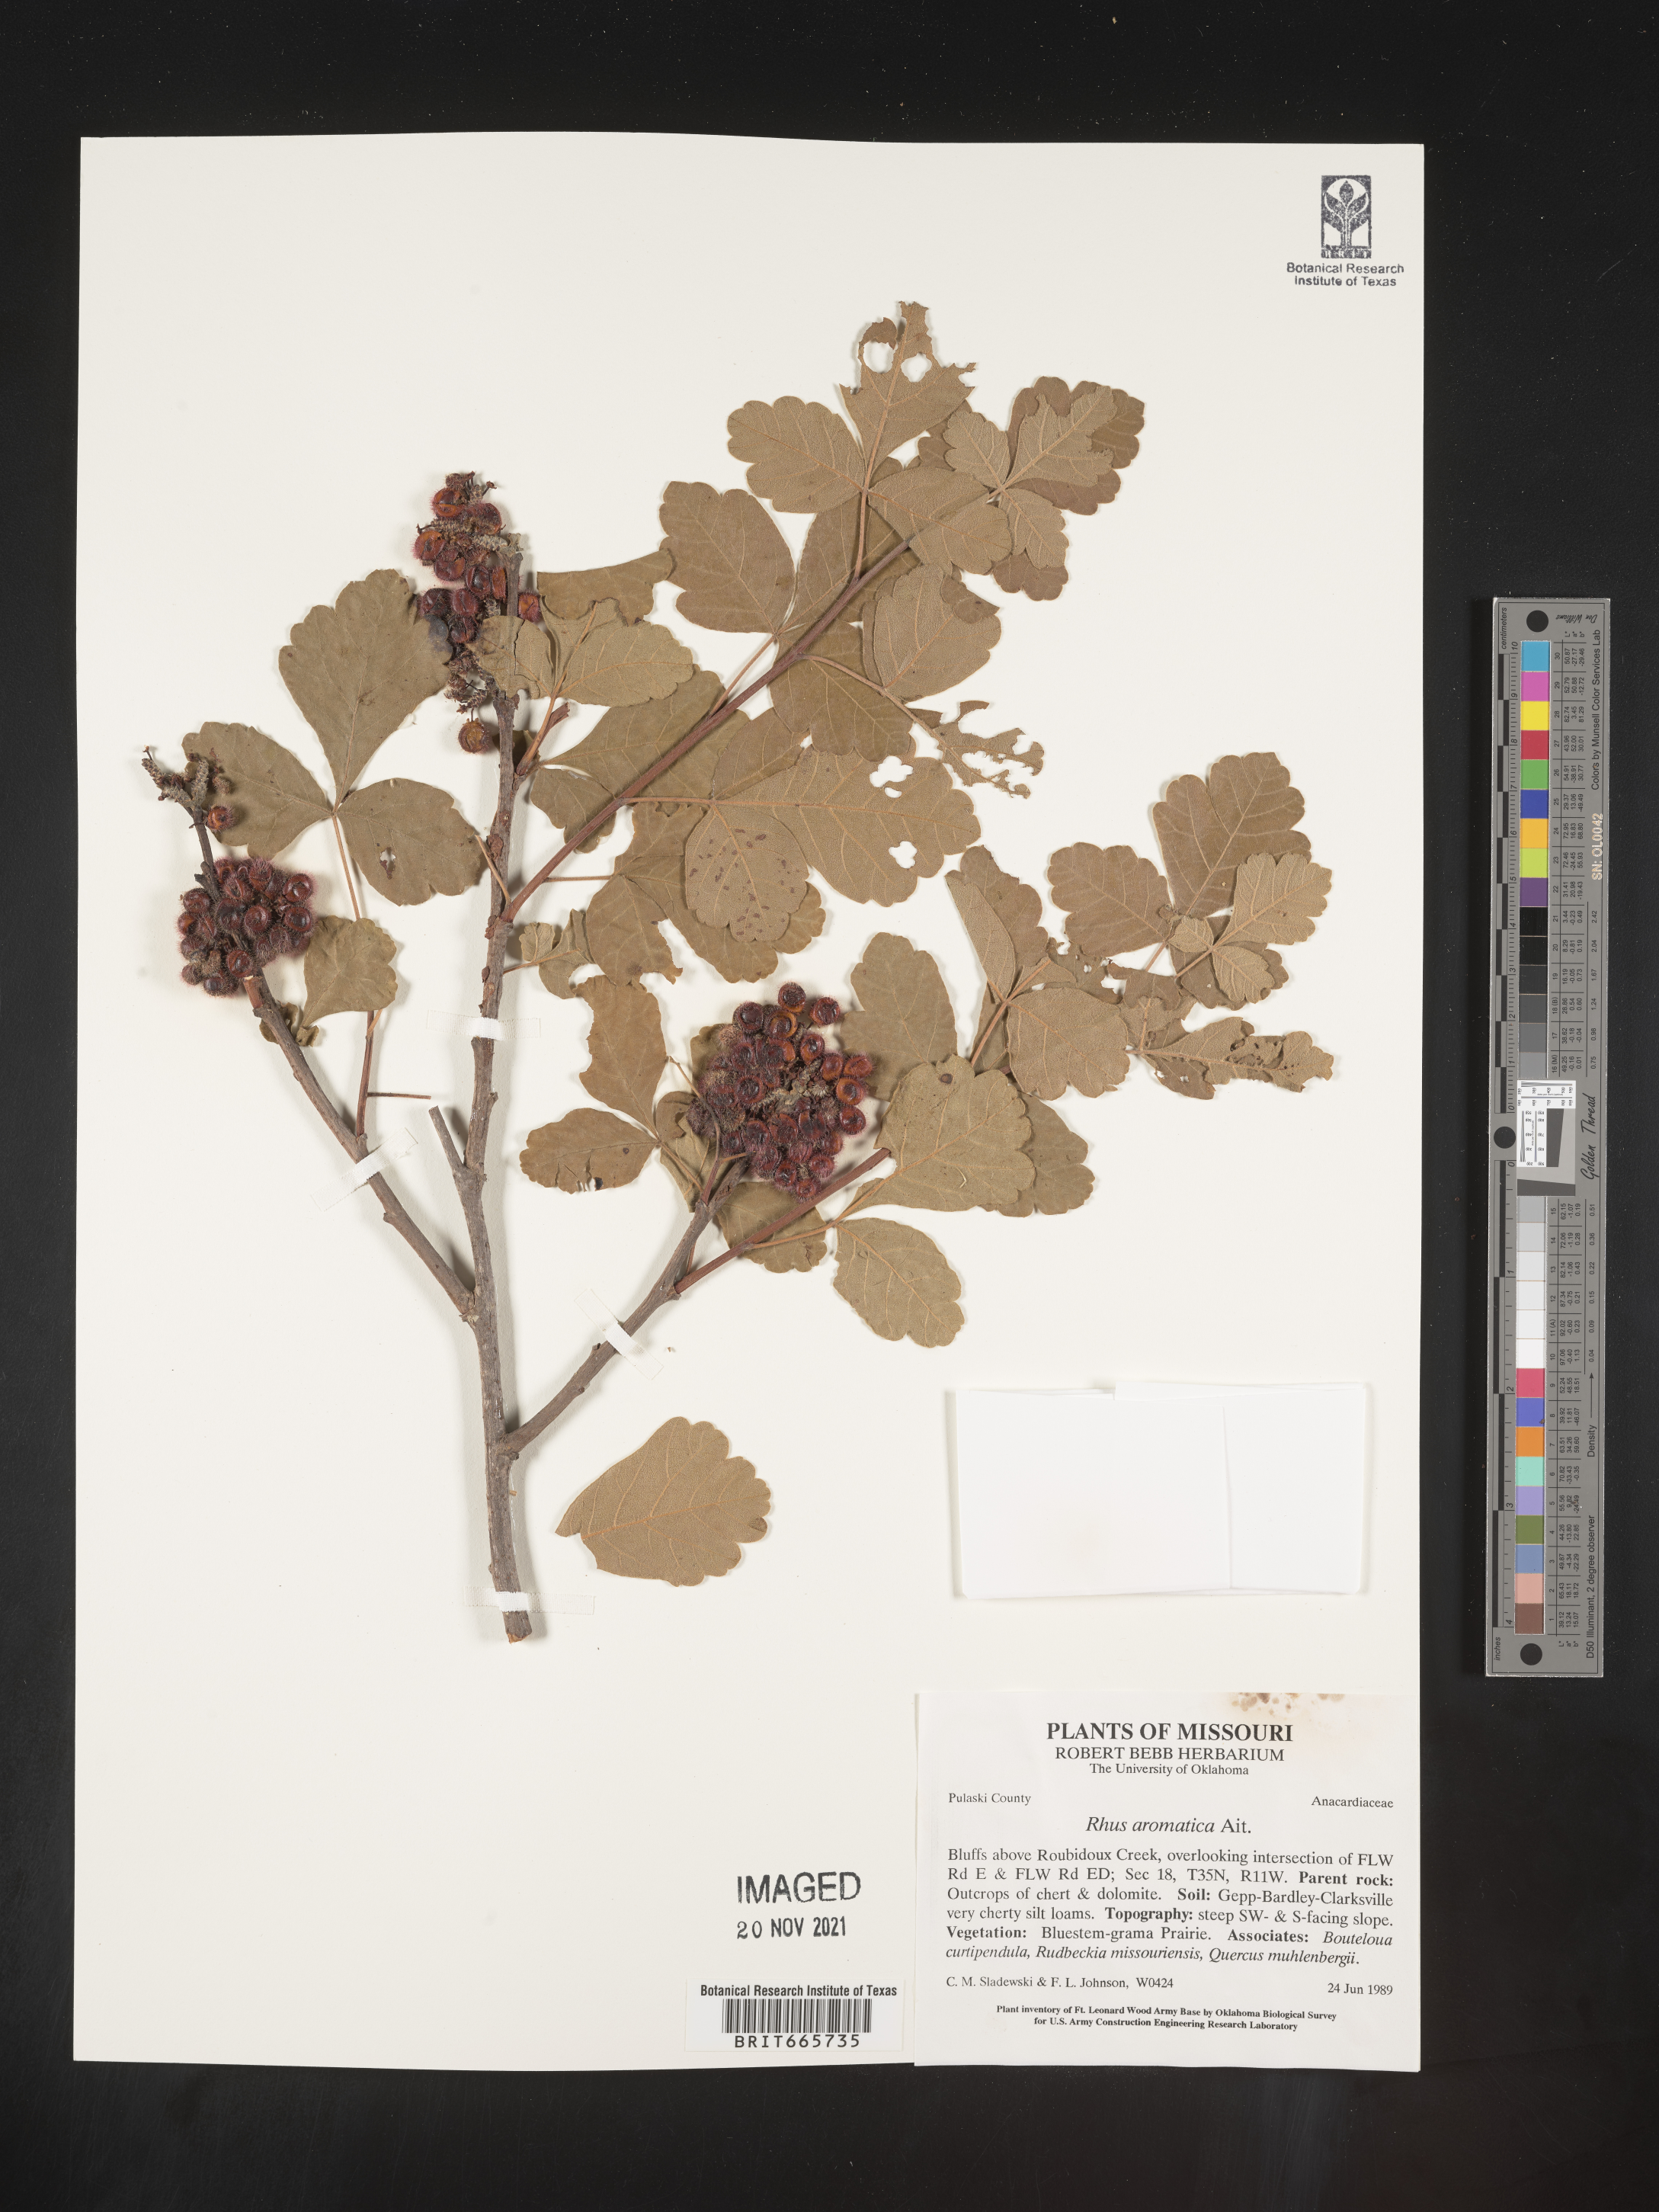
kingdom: Plantae
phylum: Tracheophyta
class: Magnoliopsida
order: Sapindales
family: Anacardiaceae
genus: Rhus
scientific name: Rhus aromatica
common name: Aromatic sumac
